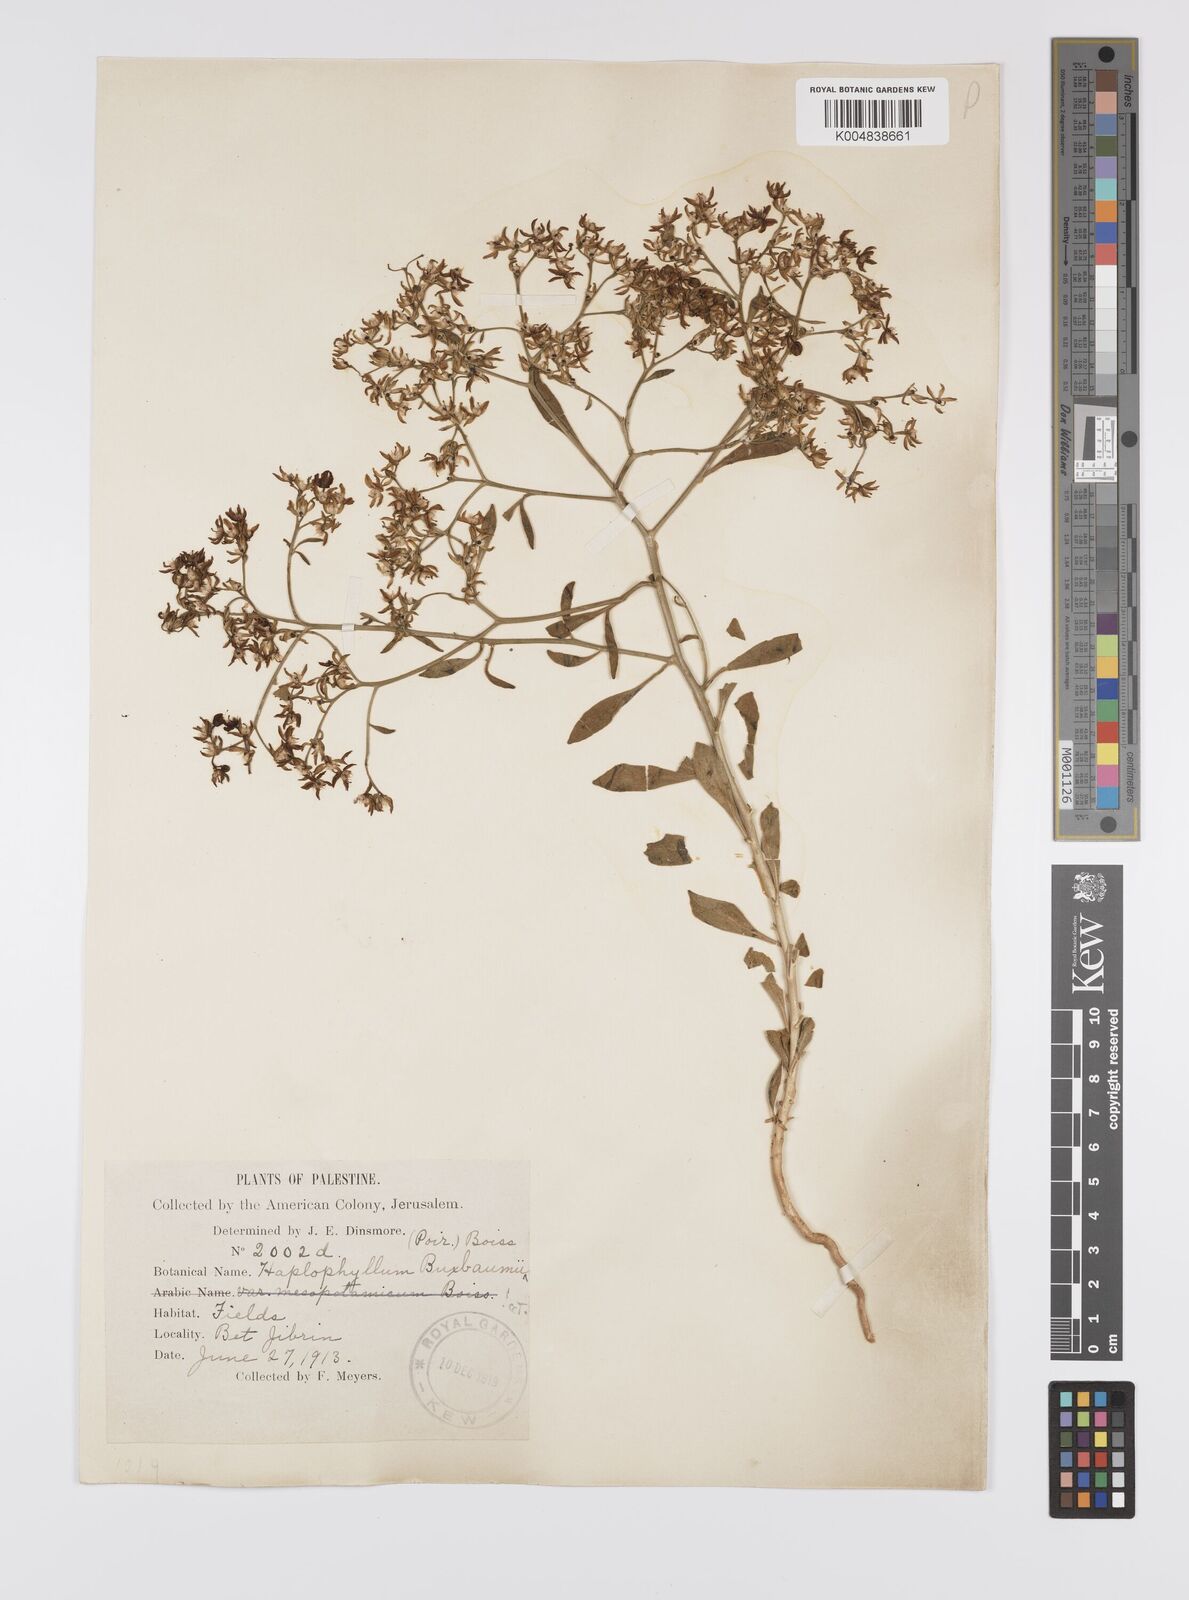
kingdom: Plantae
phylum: Tracheophyta
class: Magnoliopsida
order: Sapindales
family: Rutaceae
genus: Haplophyllum
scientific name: Haplophyllum
